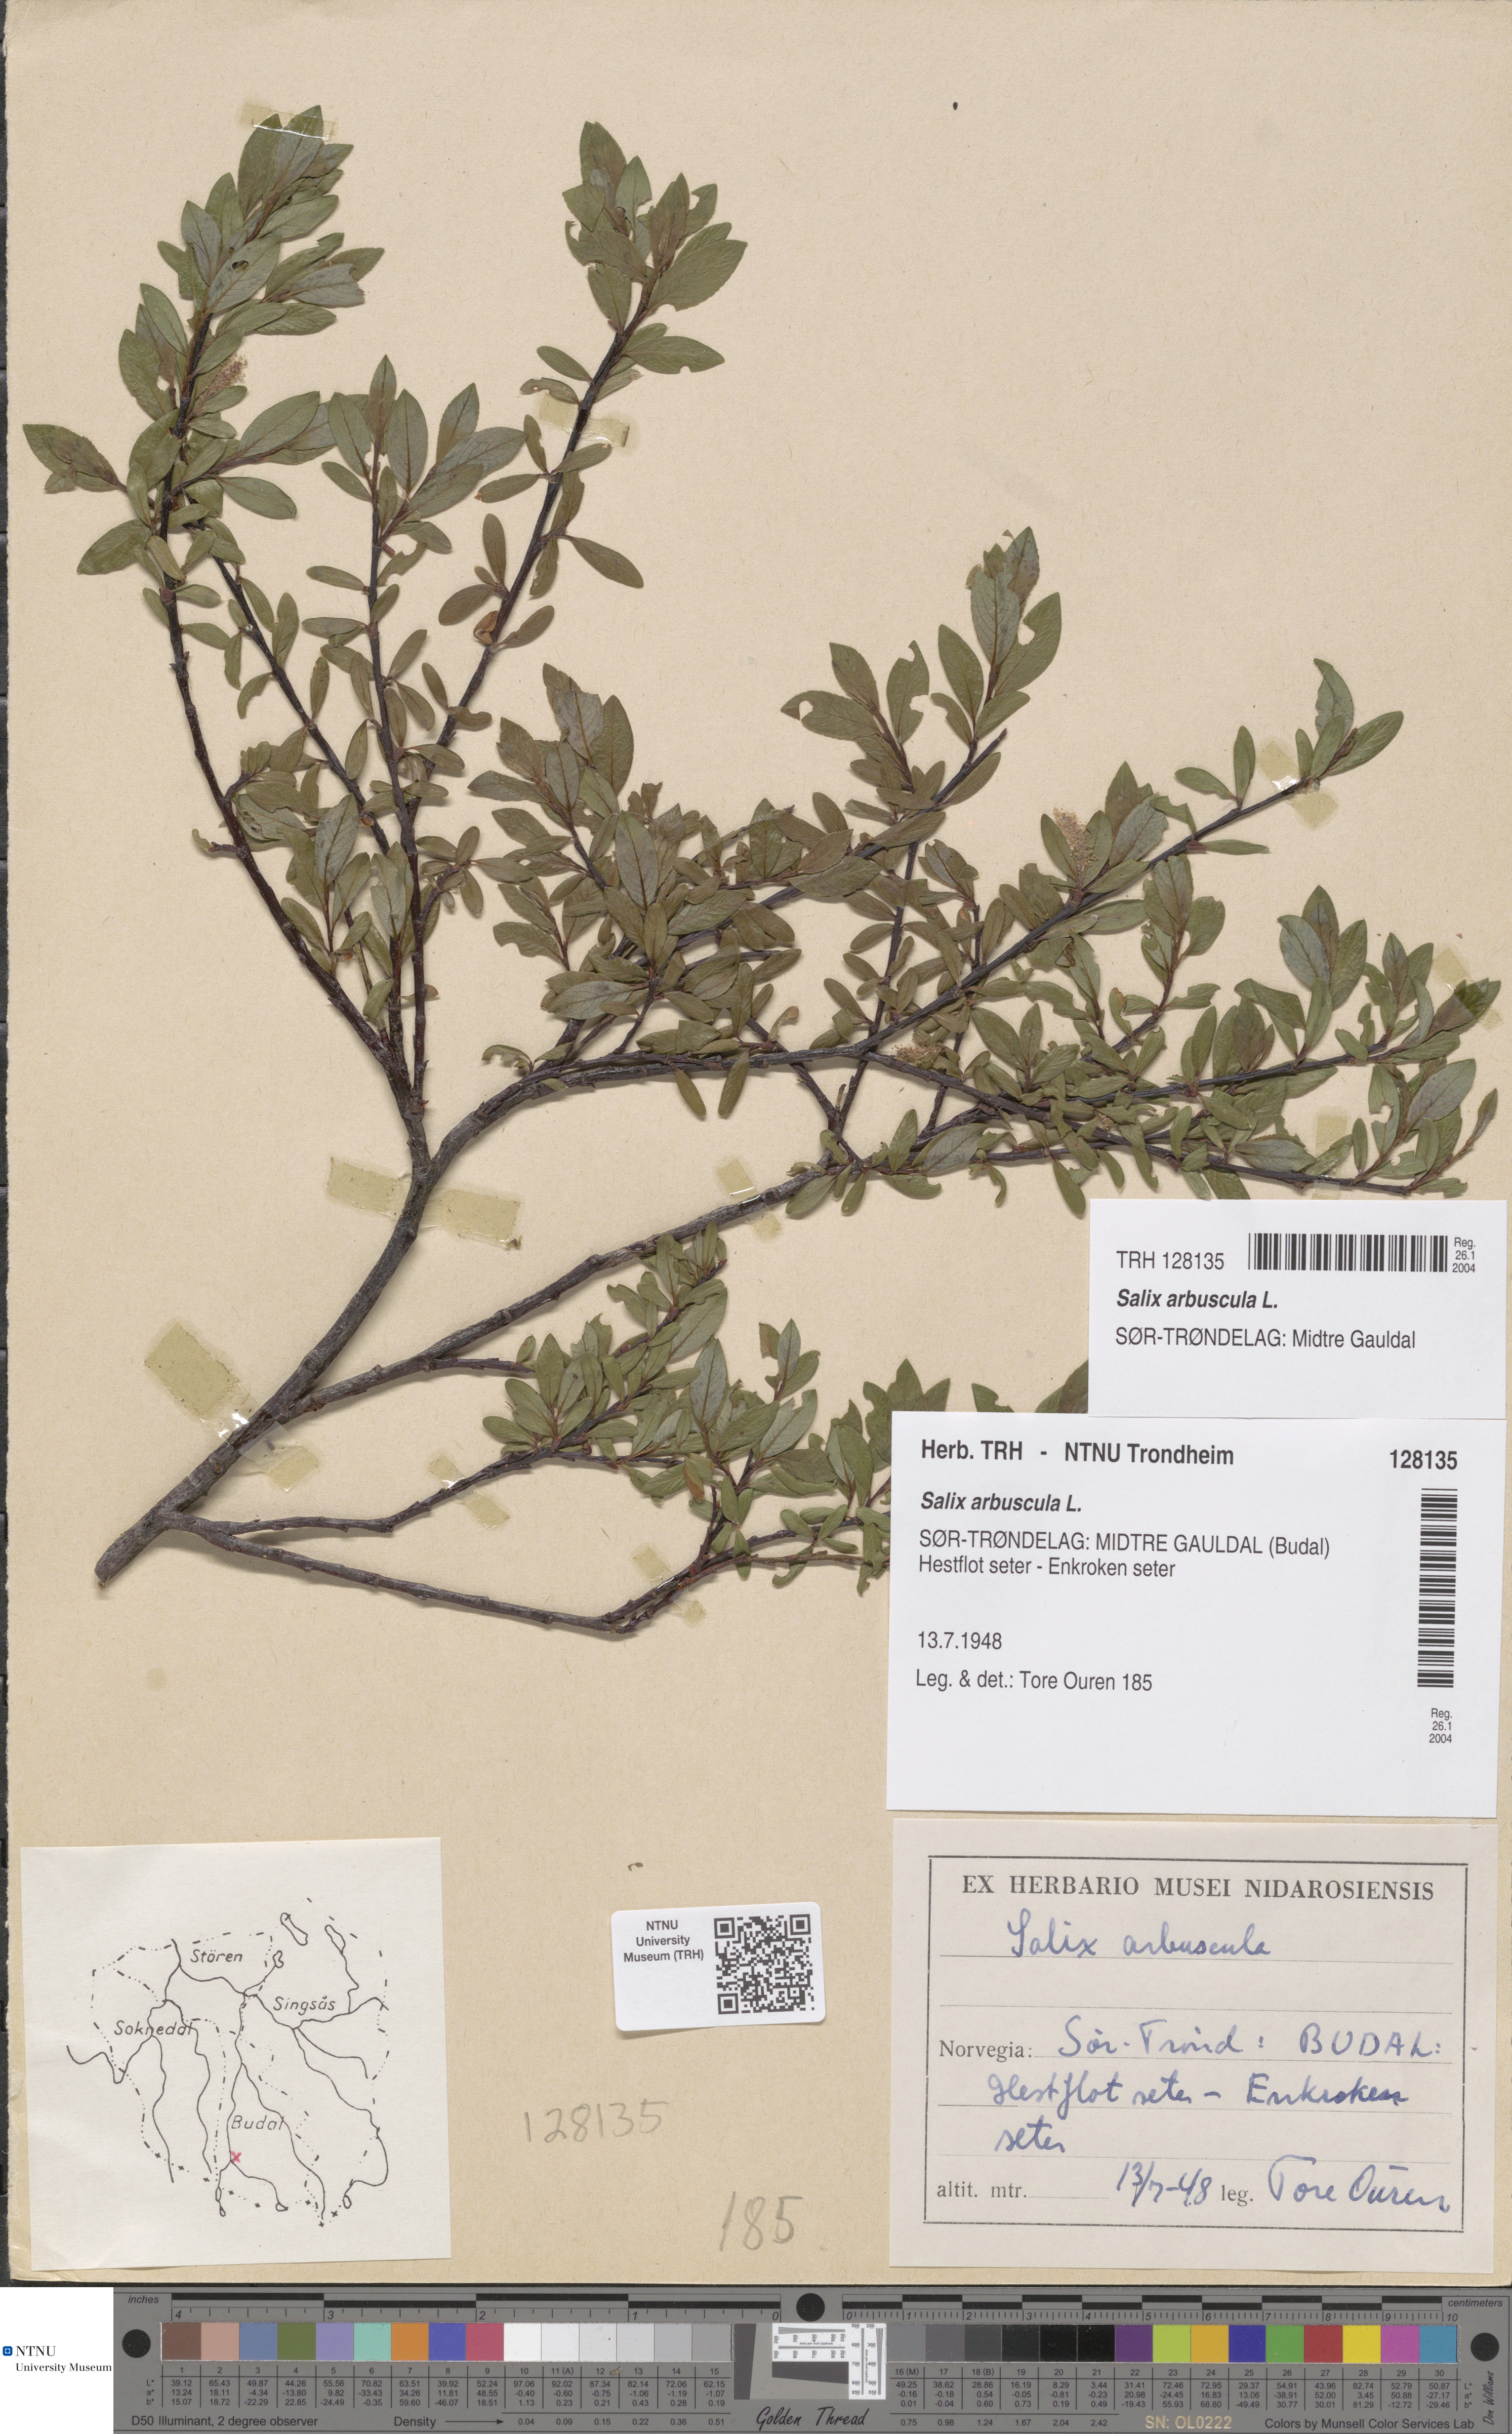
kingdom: Plantae
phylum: Tracheophyta
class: Magnoliopsida
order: Malpighiales
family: Salicaceae
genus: Salix
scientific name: Salix arbuscula
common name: Mountain willow
